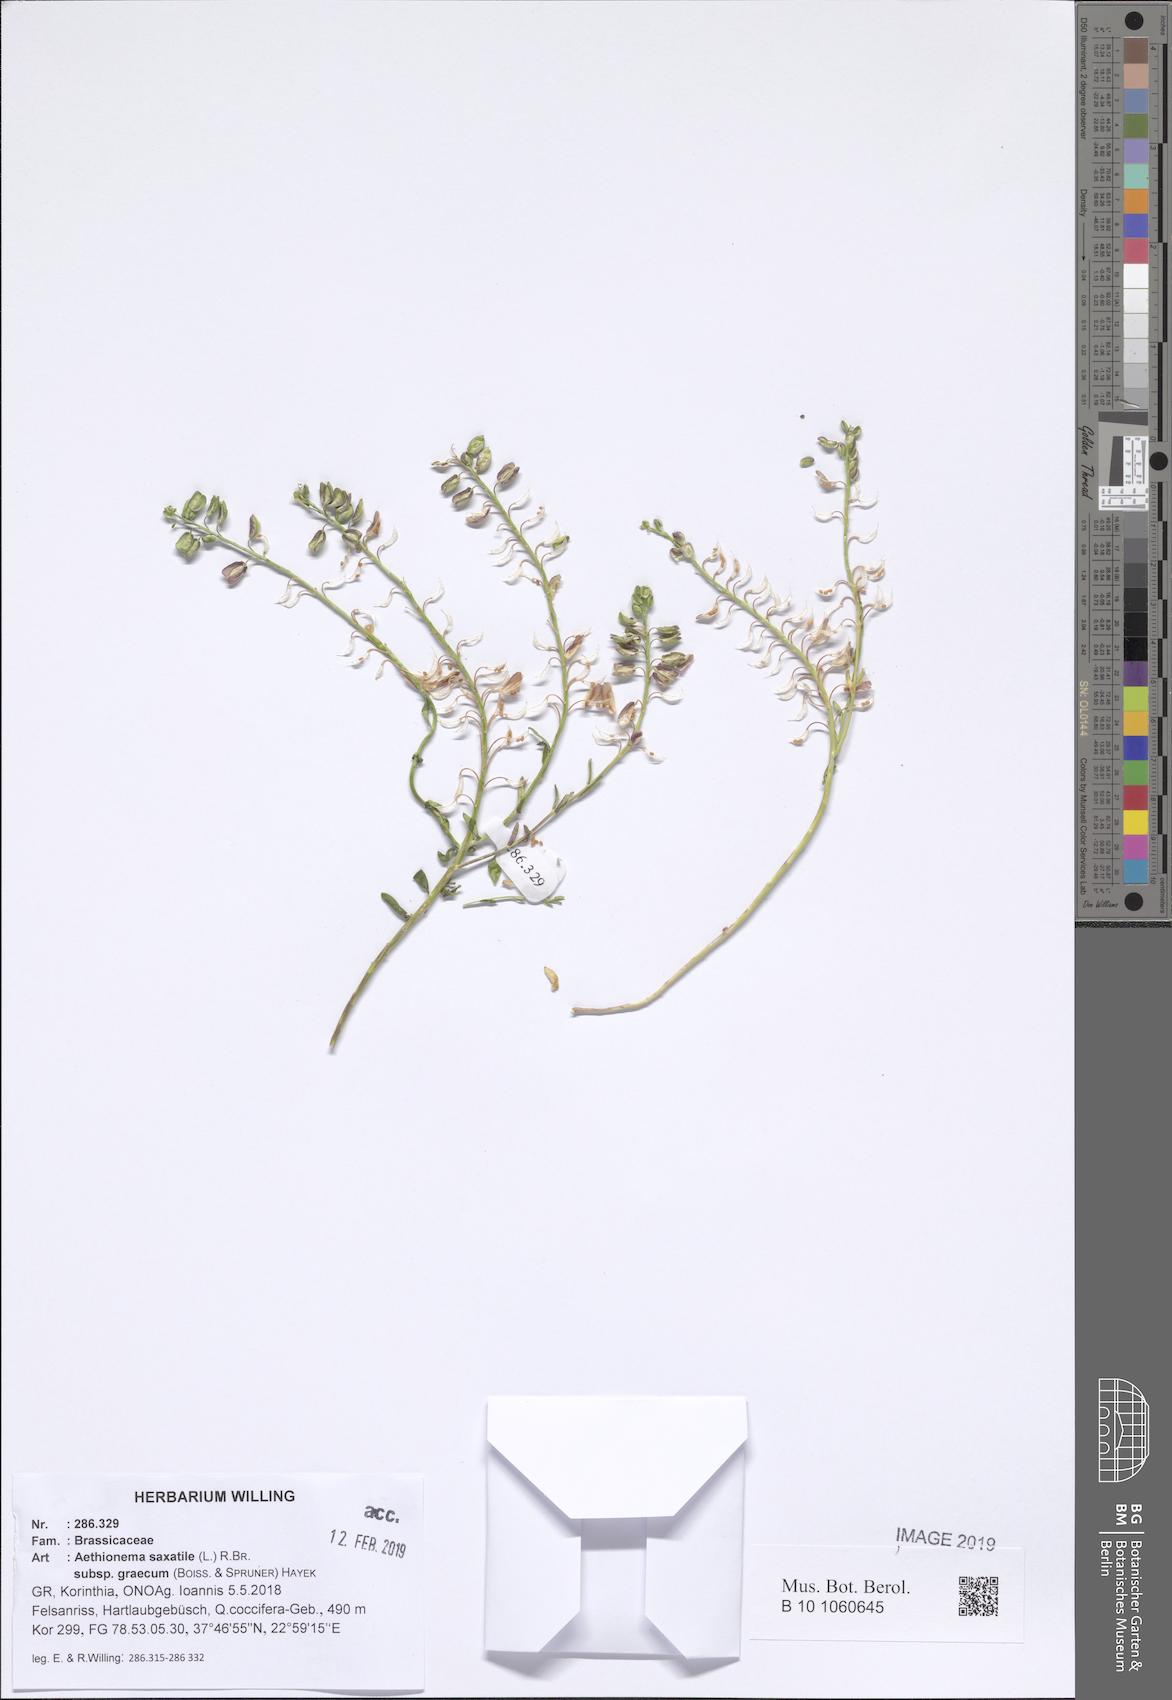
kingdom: Plantae
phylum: Tracheophyta
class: Magnoliopsida
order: Brassicales
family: Brassicaceae
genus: Aethionema
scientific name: Aethionema saxatile
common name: Burnt candytuft
